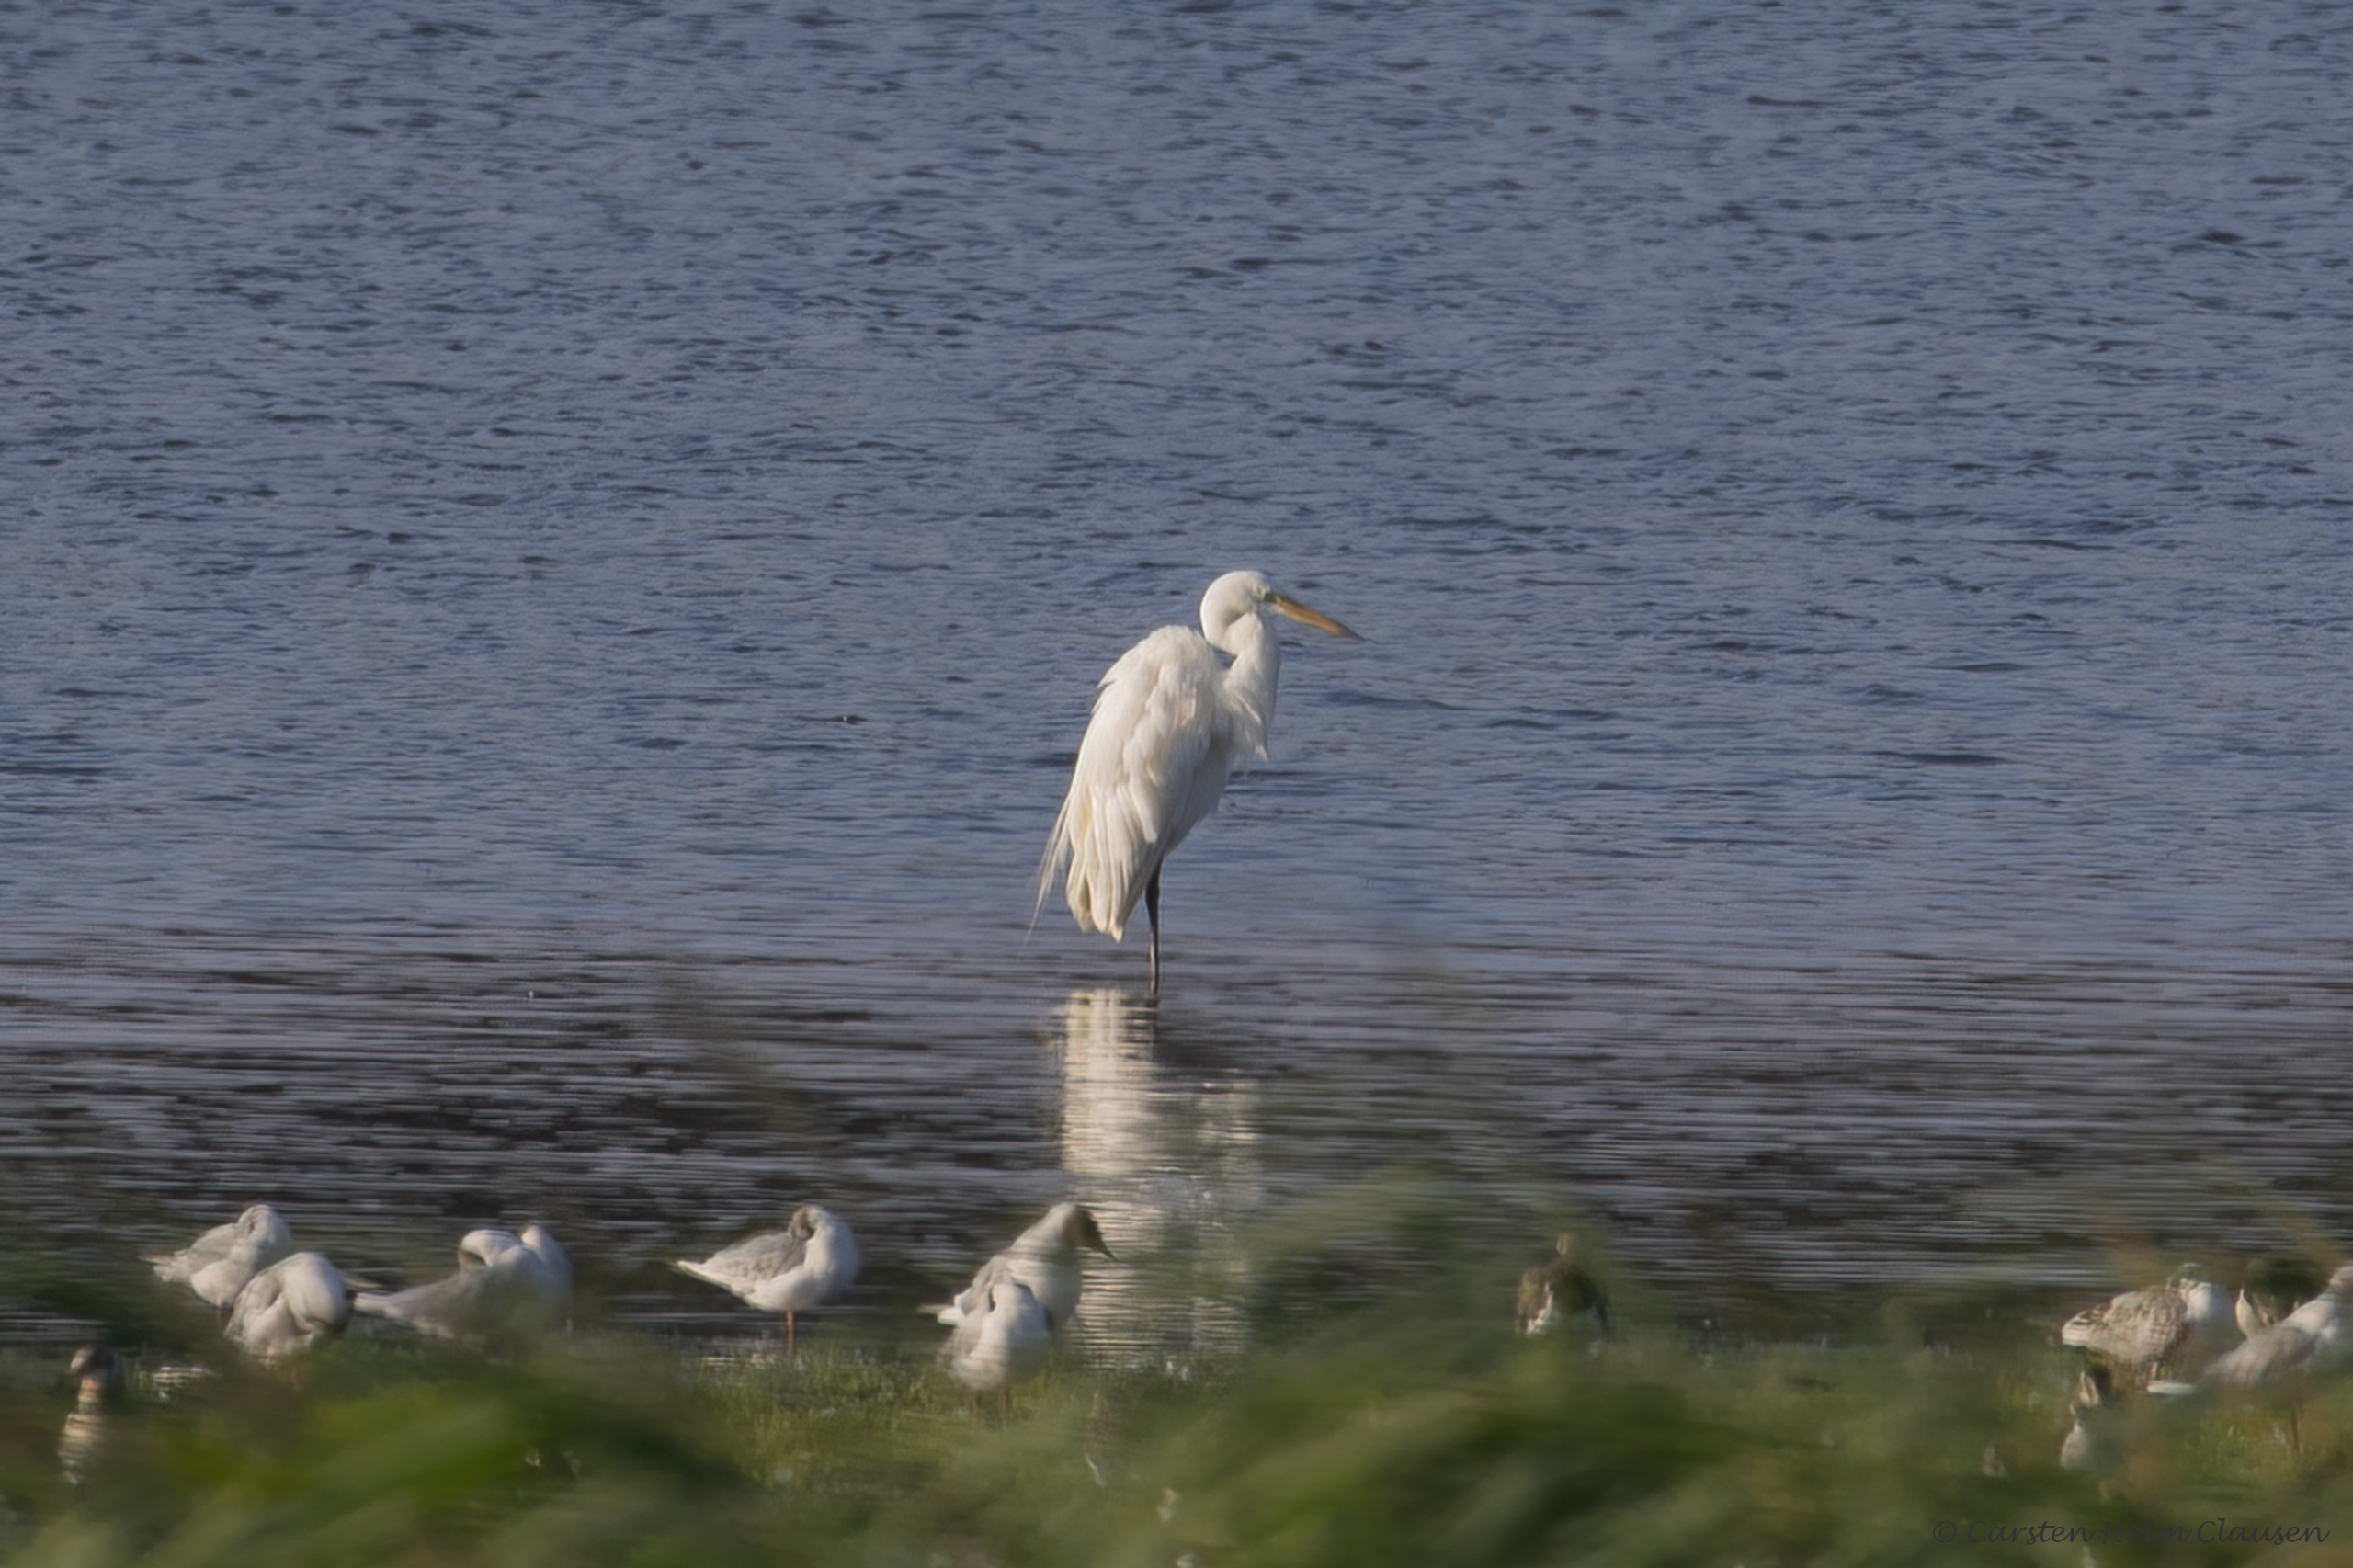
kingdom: Animalia
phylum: Chordata
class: Aves
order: Pelecaniformes
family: Ardeidae
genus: Ardea
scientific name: Ardea alba
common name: Sølvhejre
